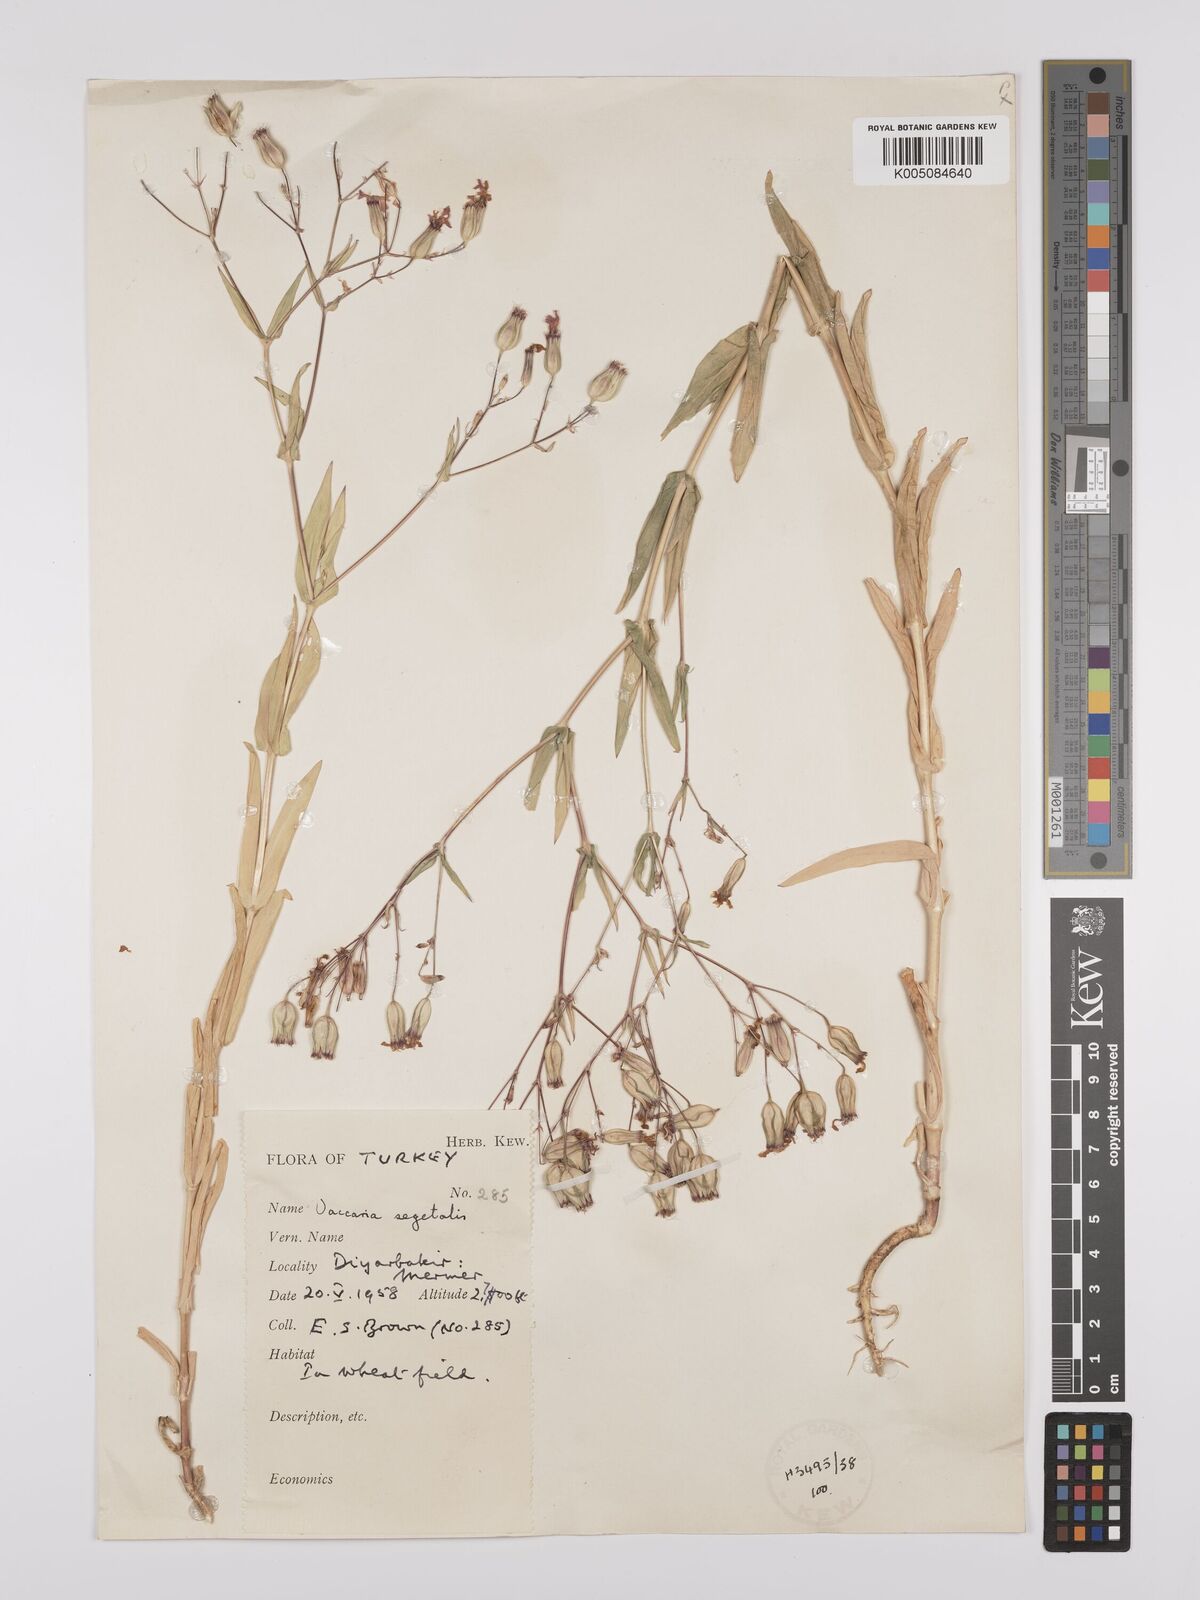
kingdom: Plantae
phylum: Tracheophyta
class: Magnoliopsida
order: Caryophyllales
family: Caryophyllaceae
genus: Gypsophila
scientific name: Gypsophila vaccaria
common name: Cow soapwort
